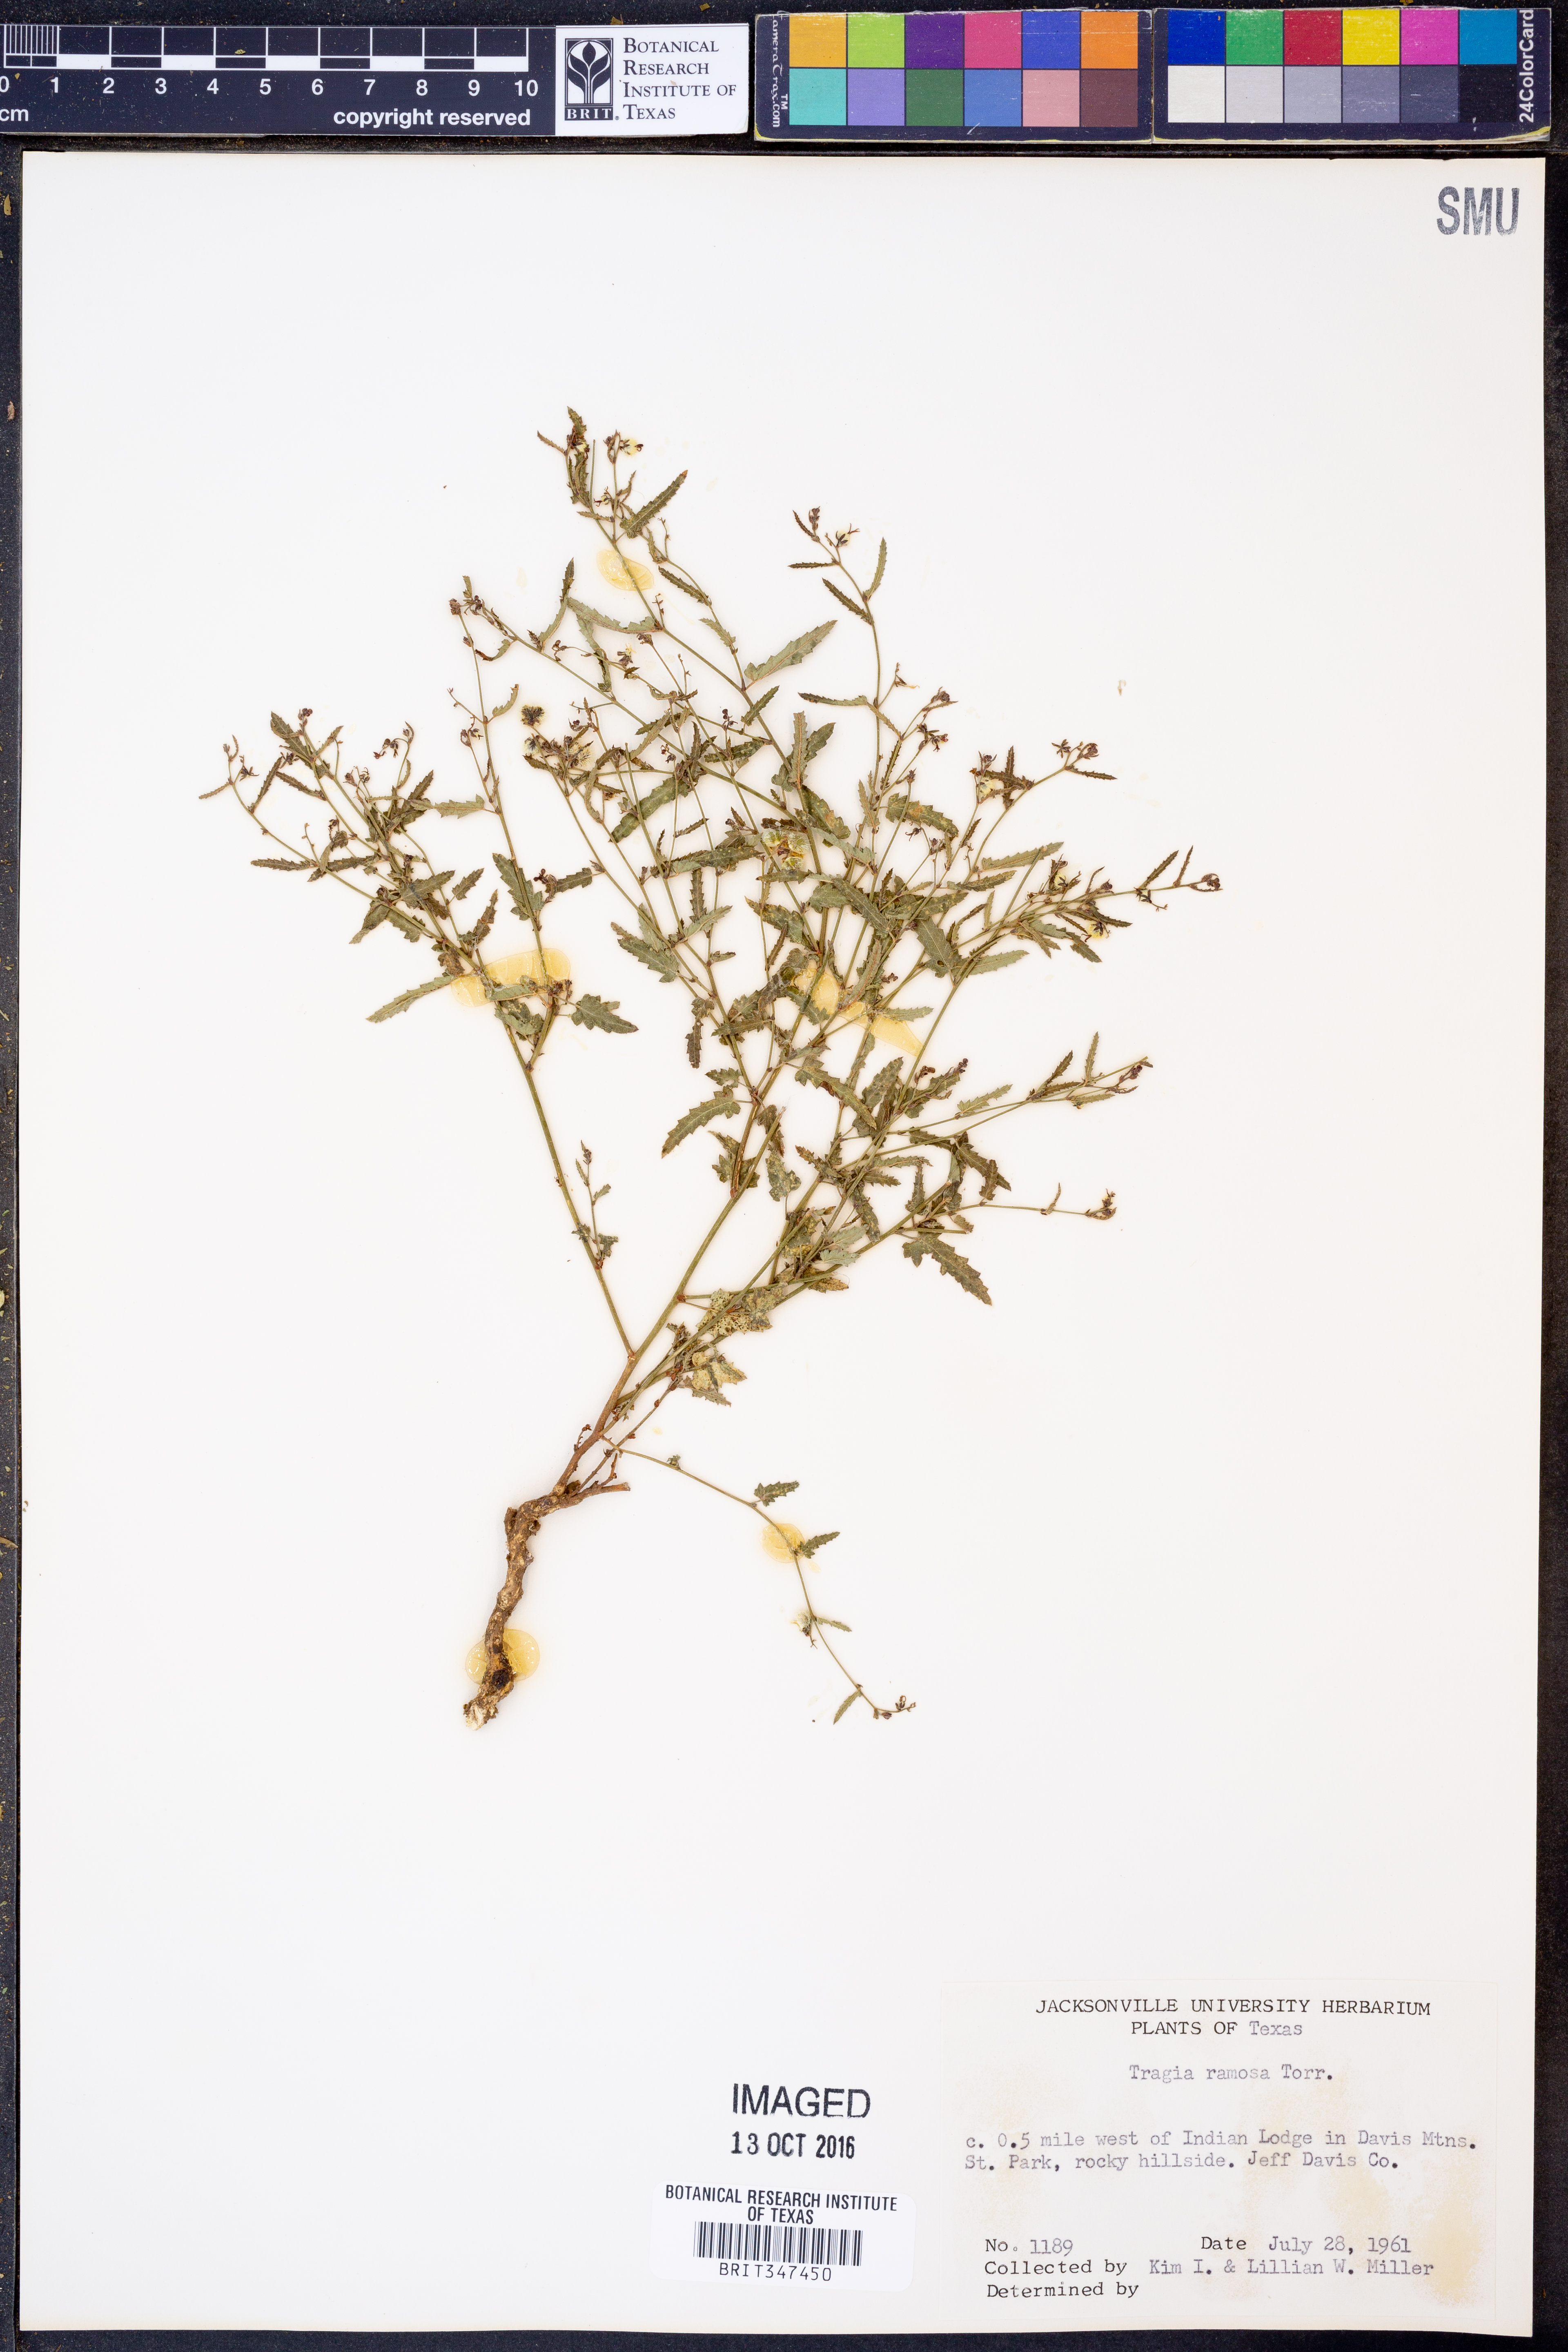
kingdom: Plantae
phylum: Tracheophyta
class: Magnoliopsida
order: Malpighiales
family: Euphorbiaceae
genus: Tragia
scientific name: Tragia ramosa
